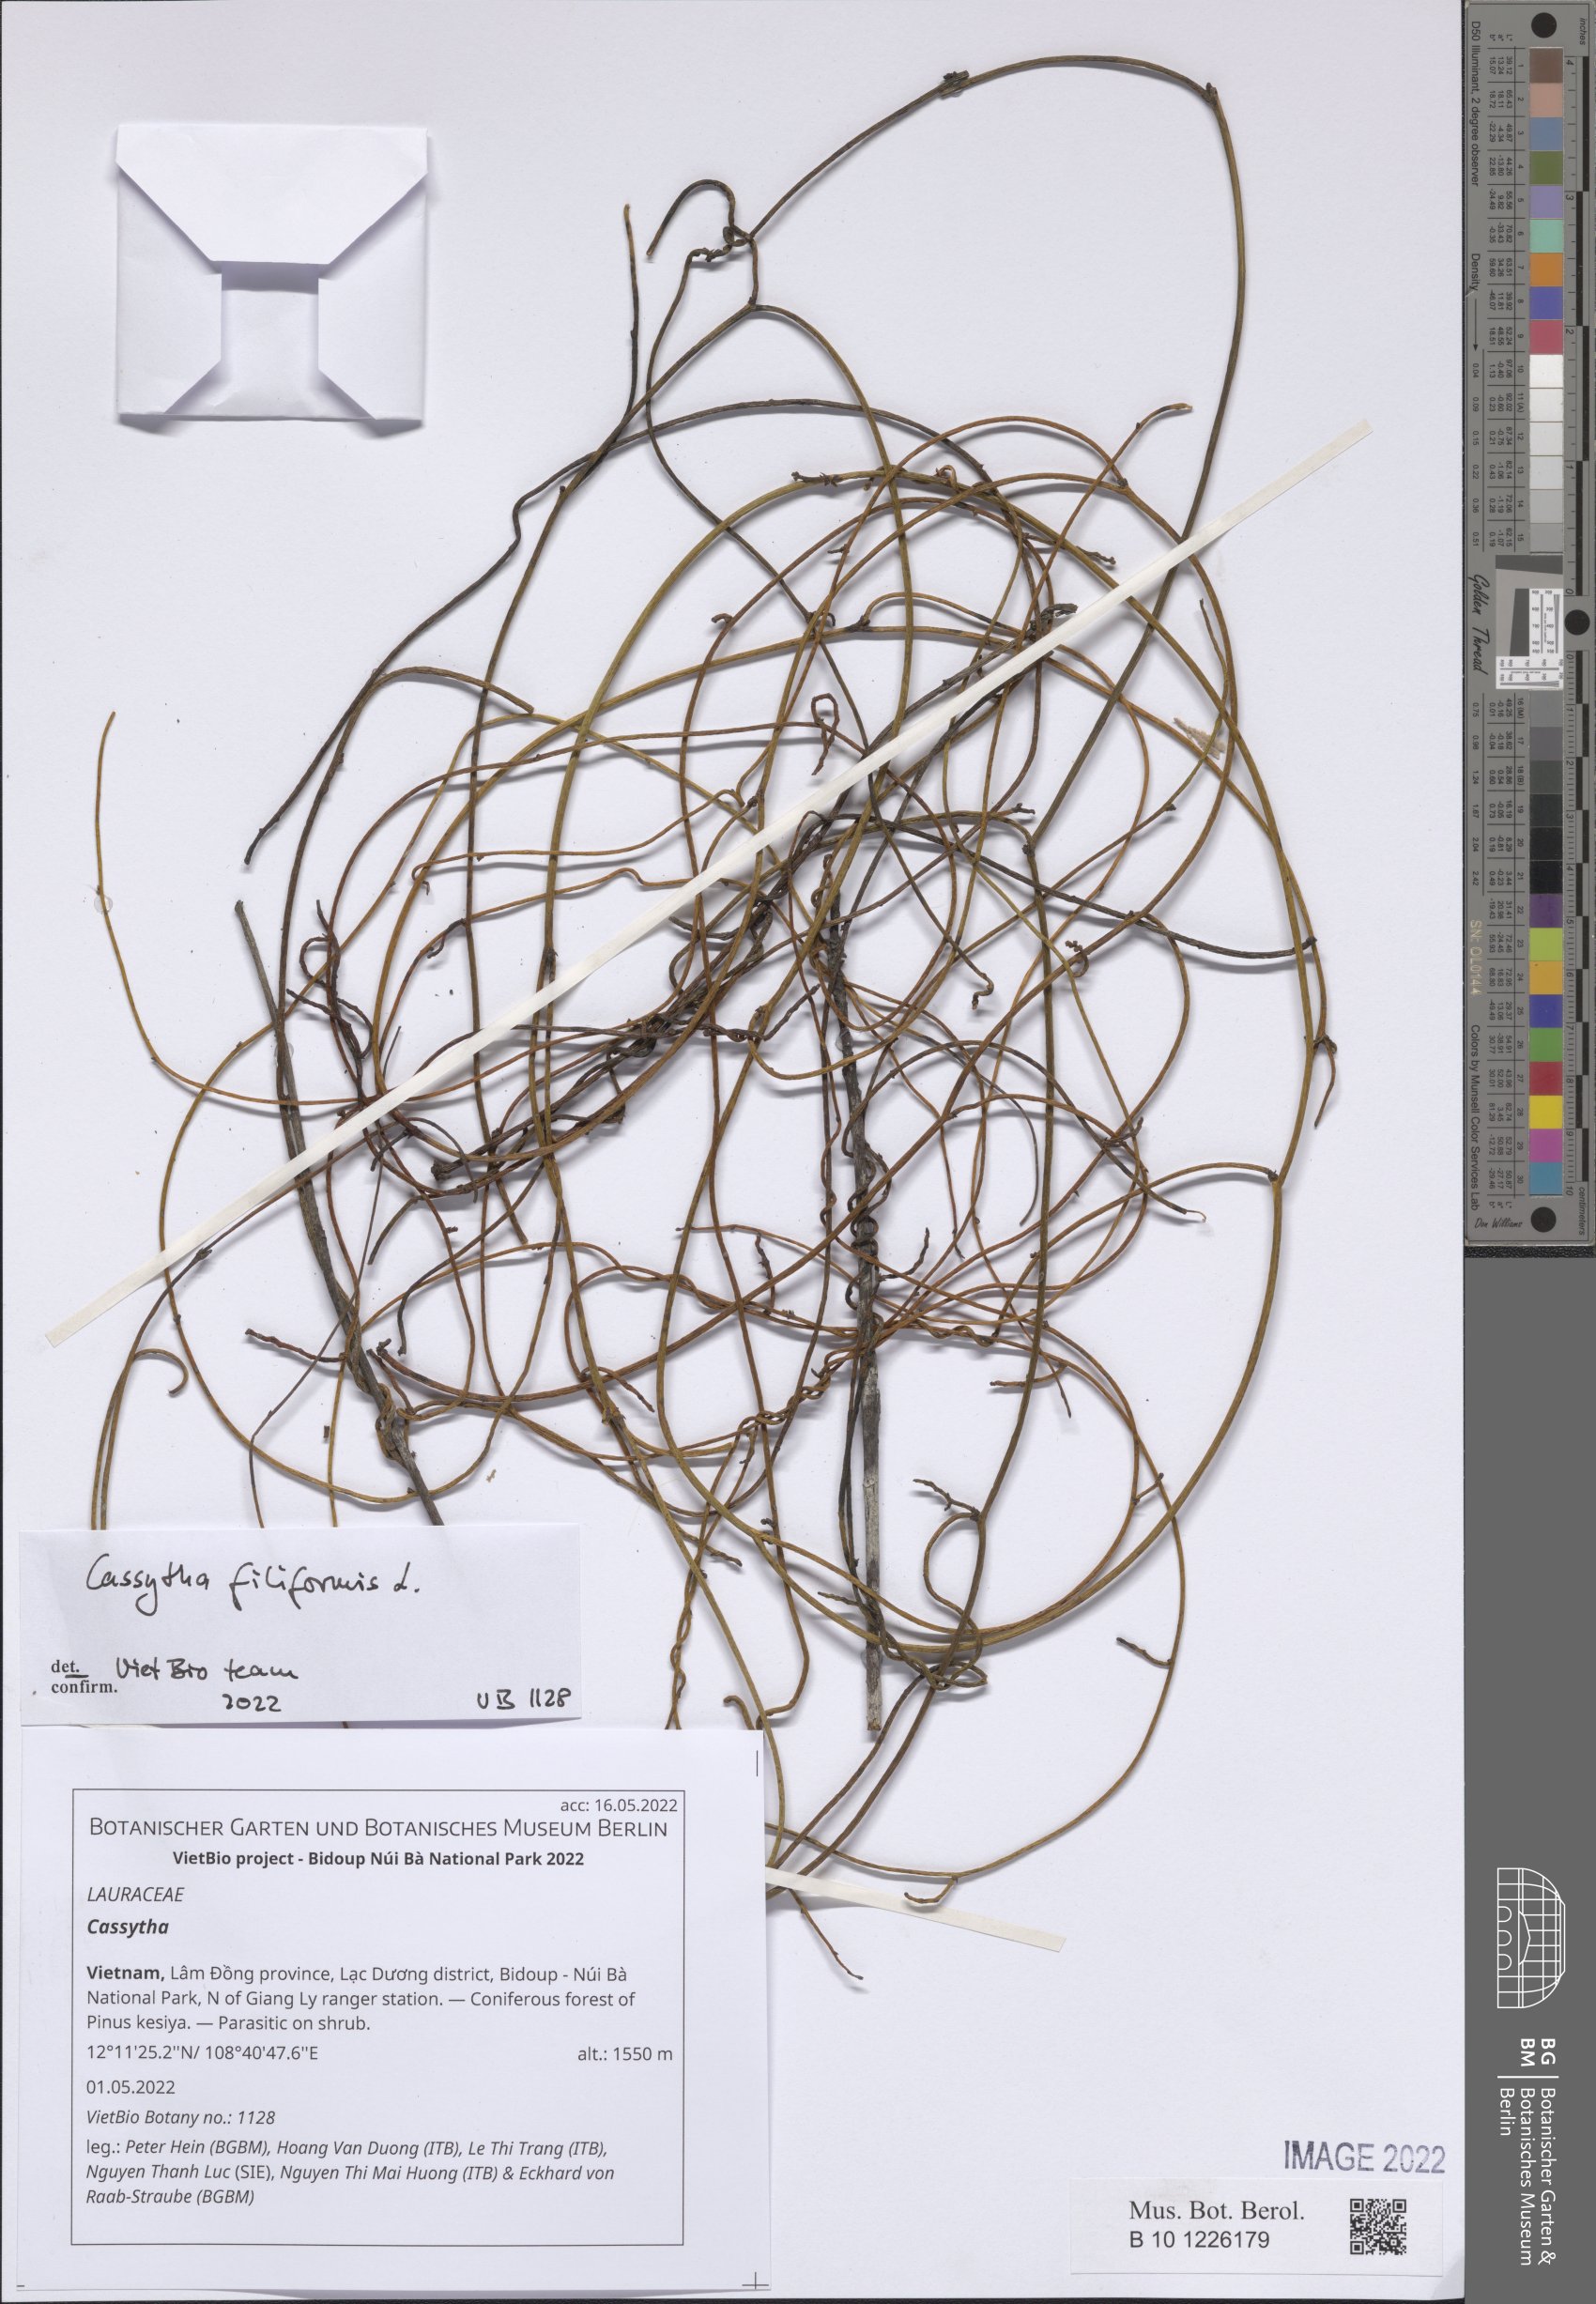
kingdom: Plantae
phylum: Tracheophyta
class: Magnoliopsida
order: Laurales
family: Lauraceae
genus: Cassytha
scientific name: Cassytha
